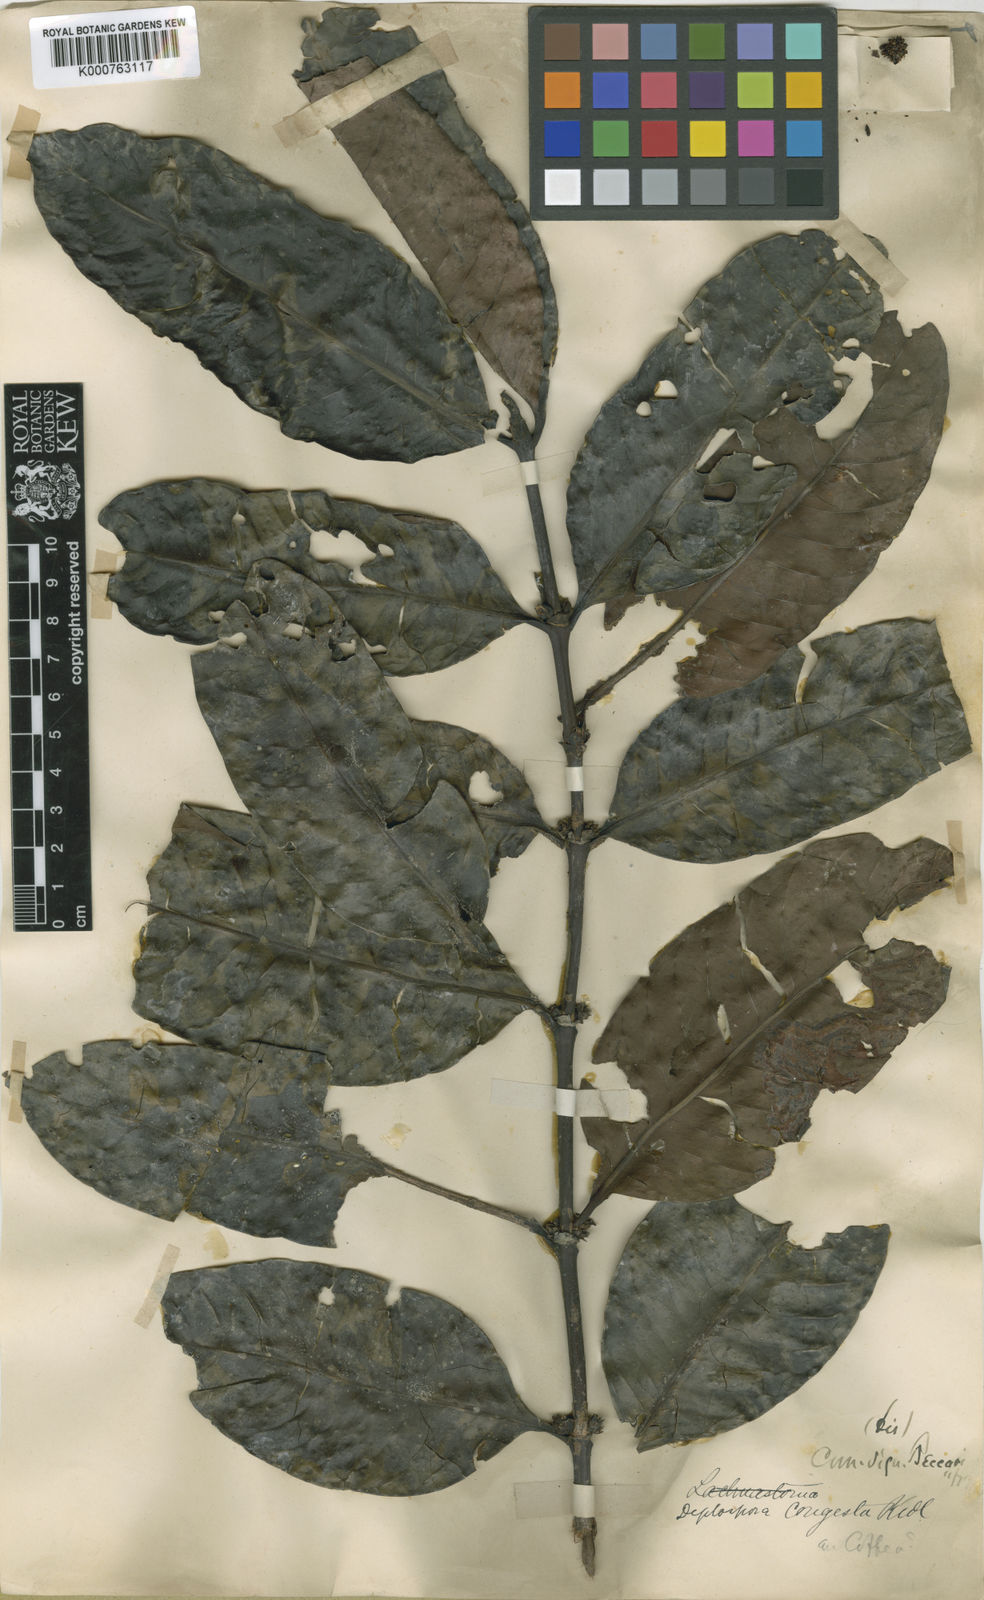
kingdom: Plantae
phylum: Tracheophyta
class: Magnoliopsida
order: Gentianales
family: Rubiaceae
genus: Diplospora
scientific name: Diplospora
